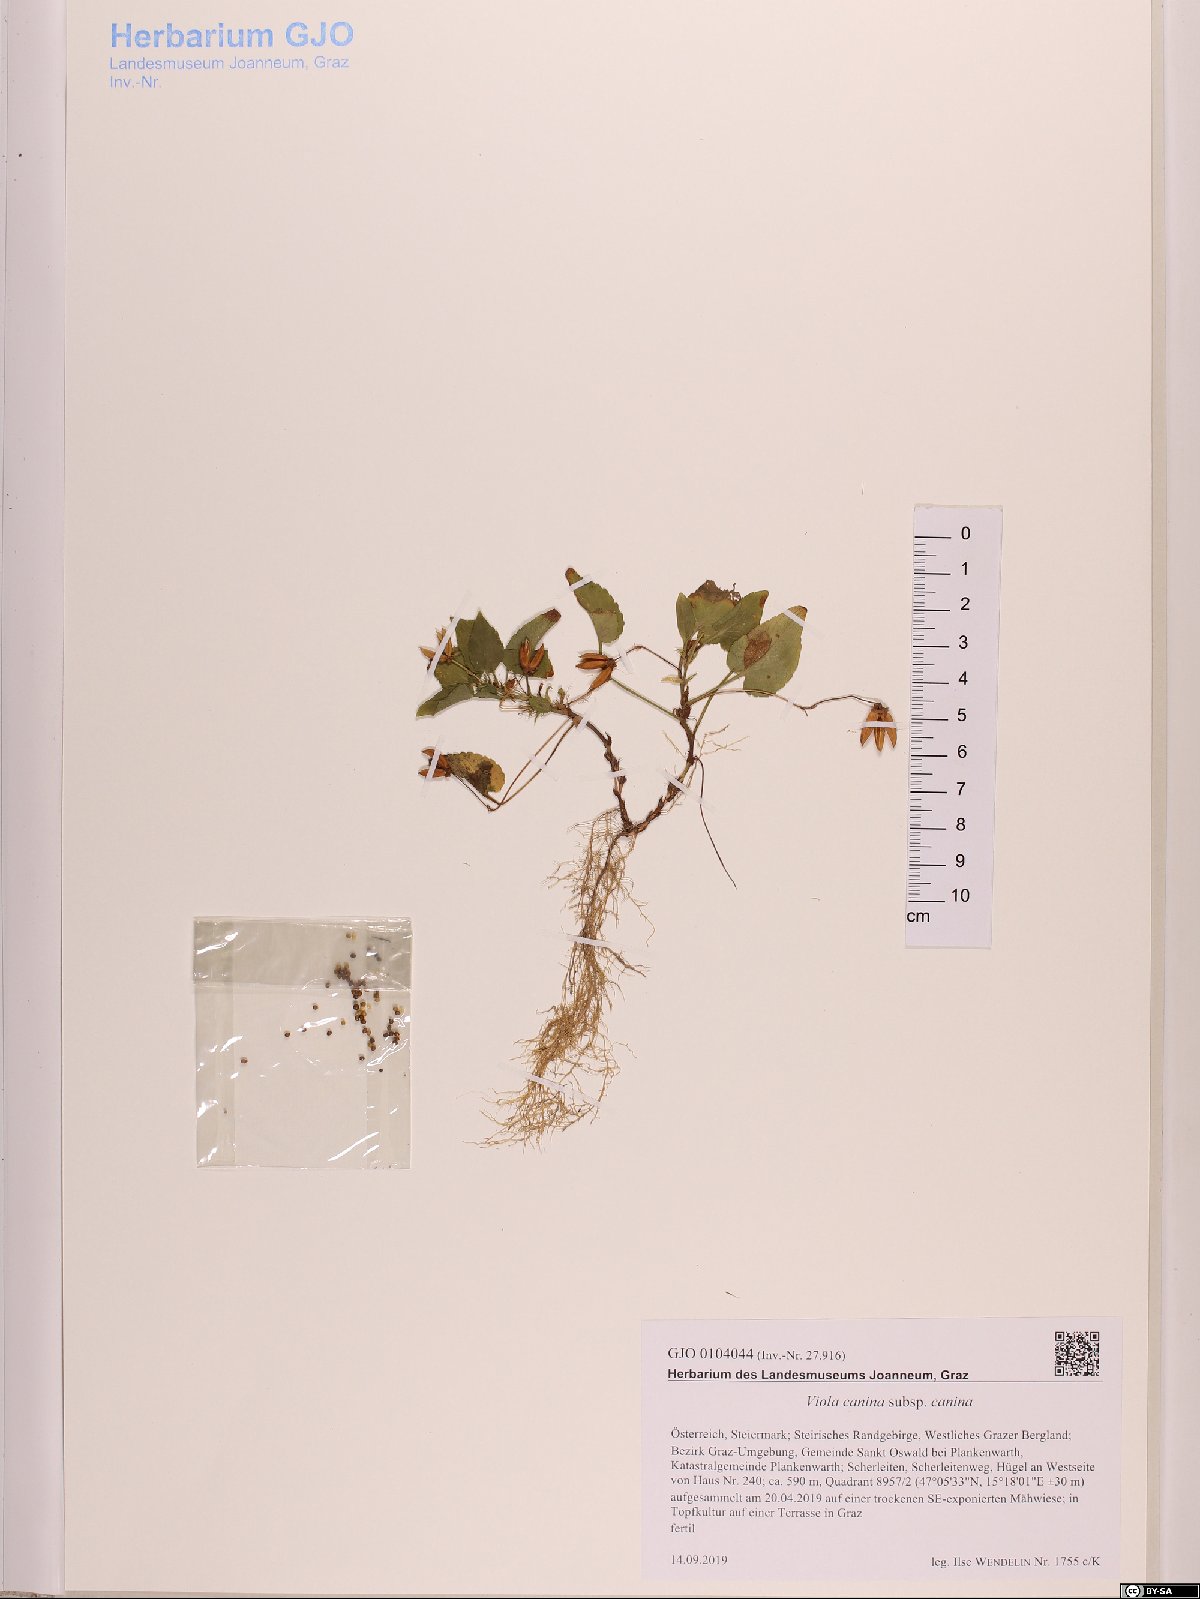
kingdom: Plantae
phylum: Tracheophyta
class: Magnoliopsida
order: Malpighiales
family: Violaceae
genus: Viola
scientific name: Viola canina
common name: Heath dog-violet
